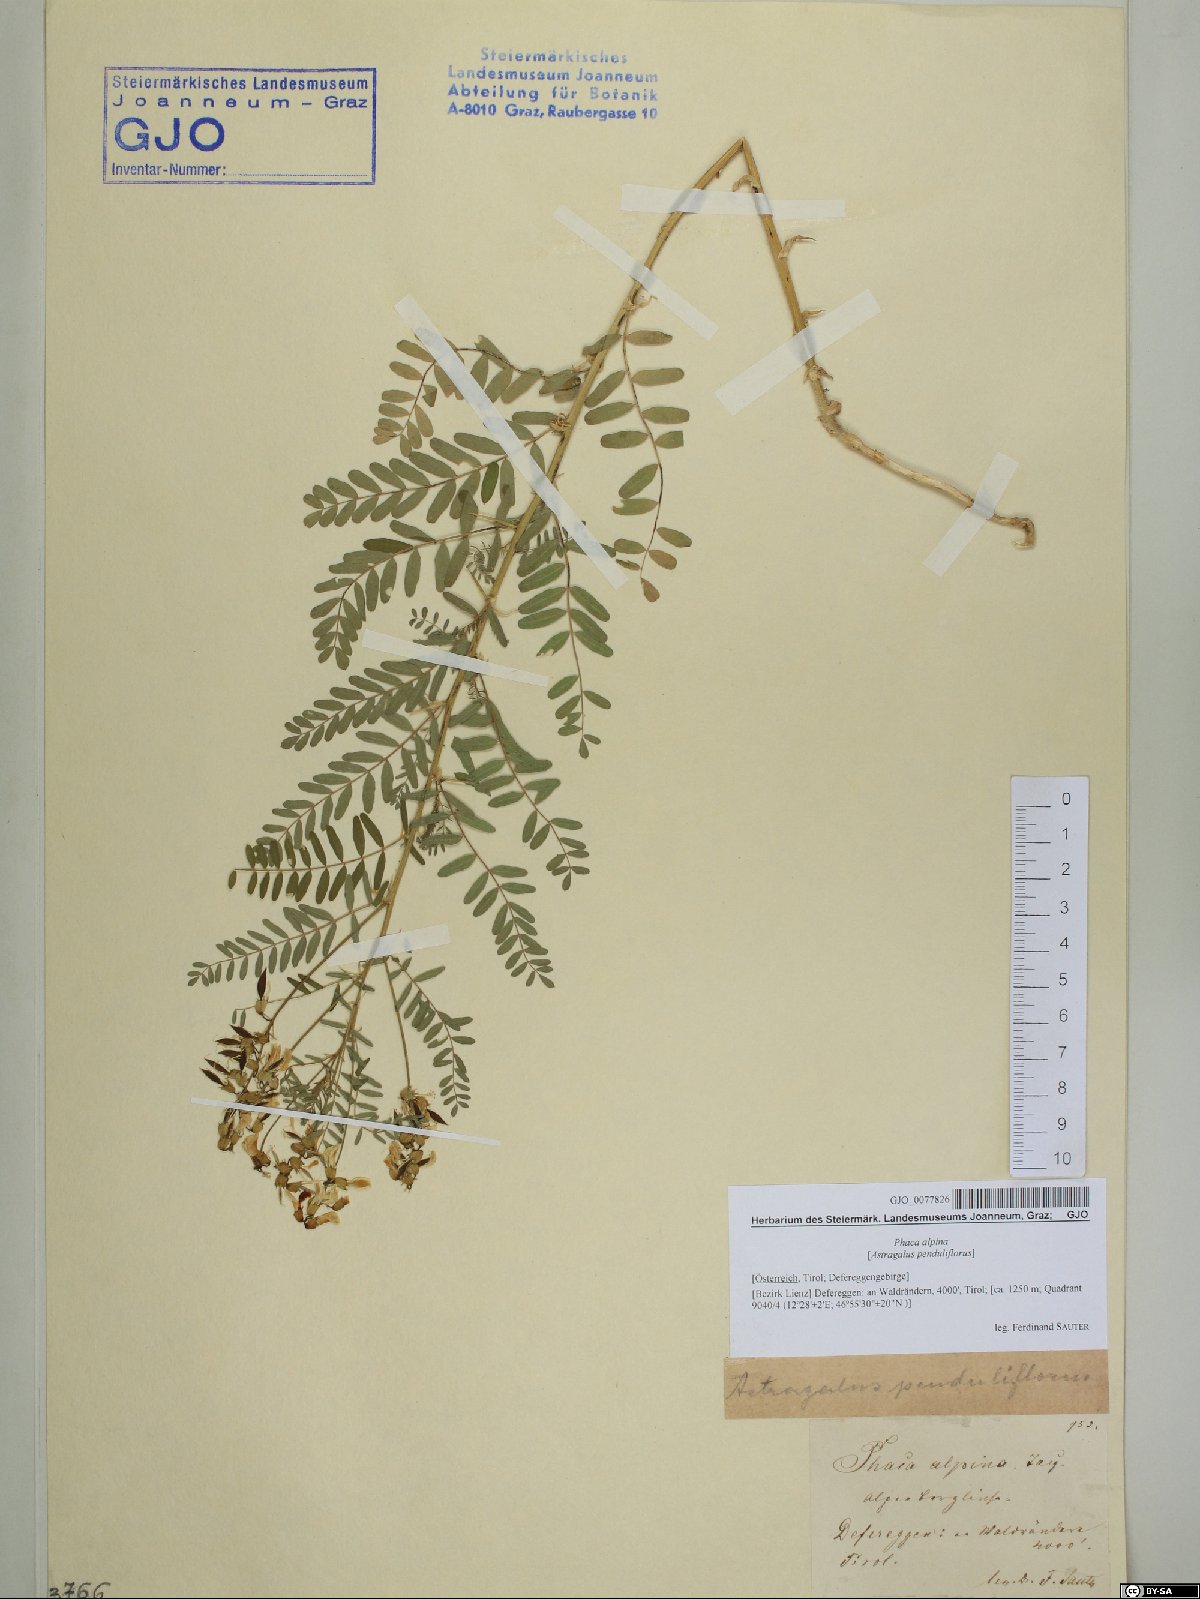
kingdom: Plantae
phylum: Tracheophyta
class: Magnoliopsida
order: Fabales
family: Fabaceae
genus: Astragalus
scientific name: Astragalus penduliflorus
